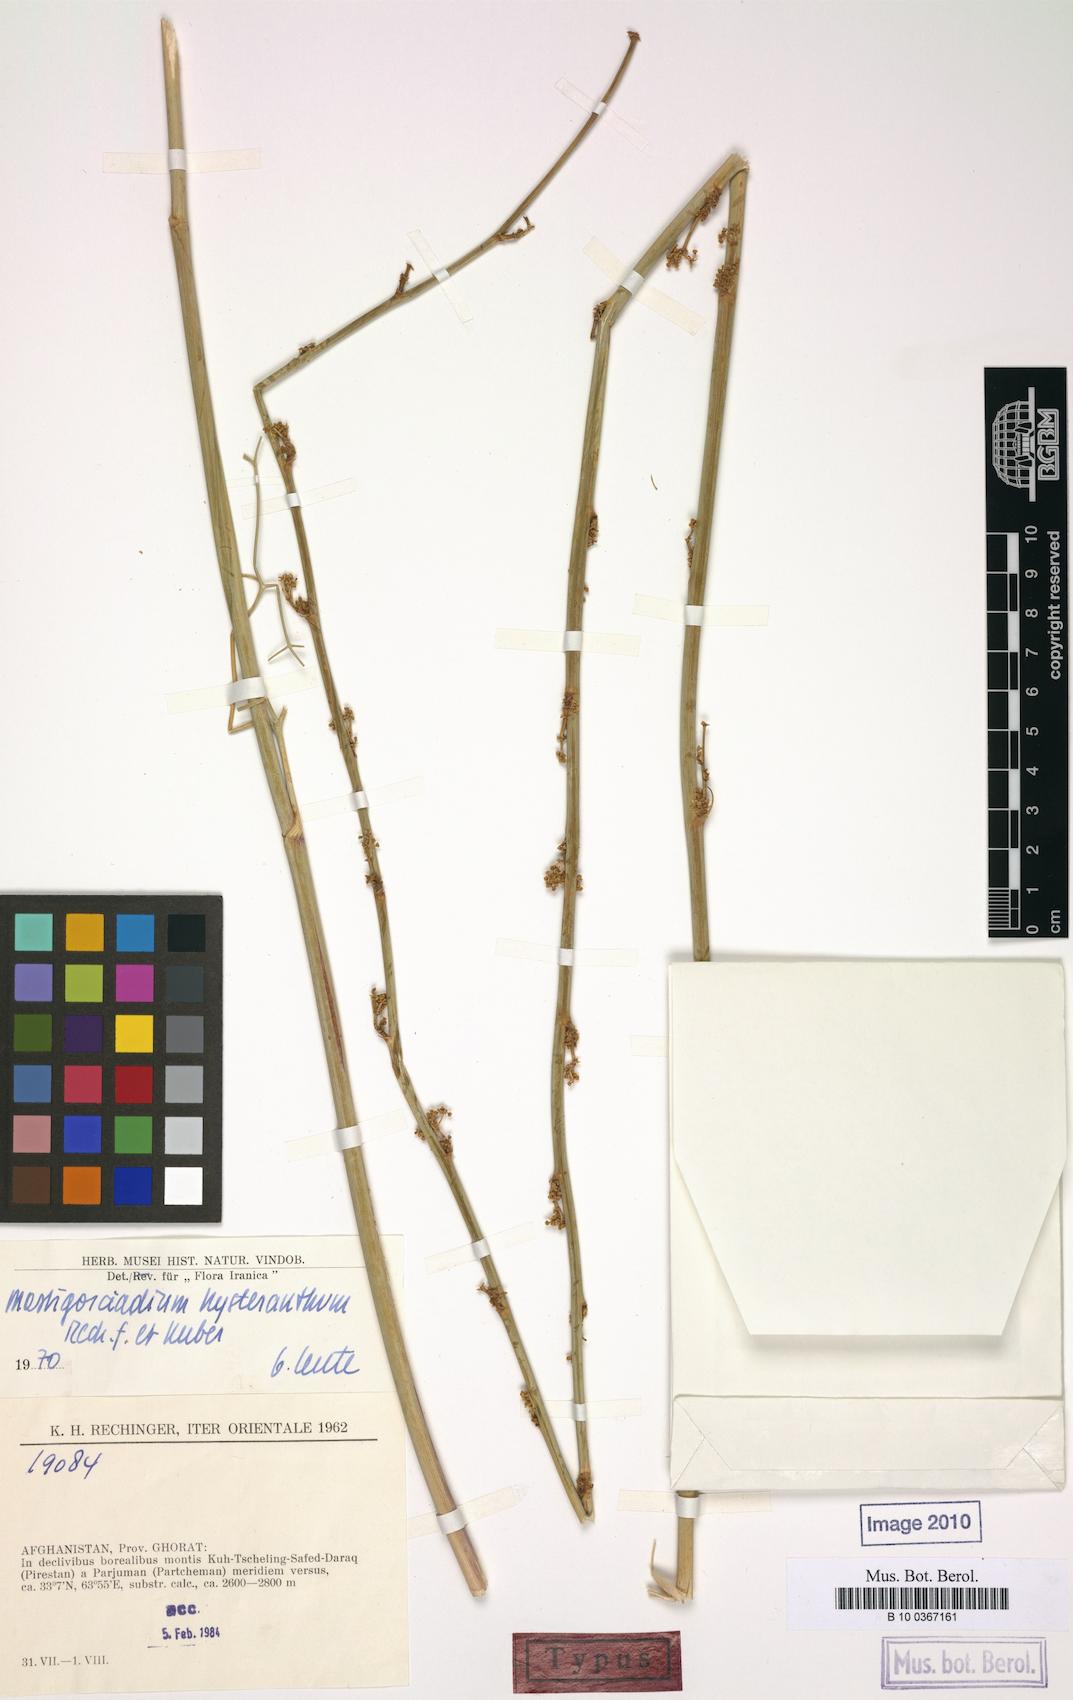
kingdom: Plantae
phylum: Tracheophyta
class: Magnoliopsida
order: Apiales
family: Apiaceae
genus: Mastigosciadium
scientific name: Mastigosciadium hysteranthum
